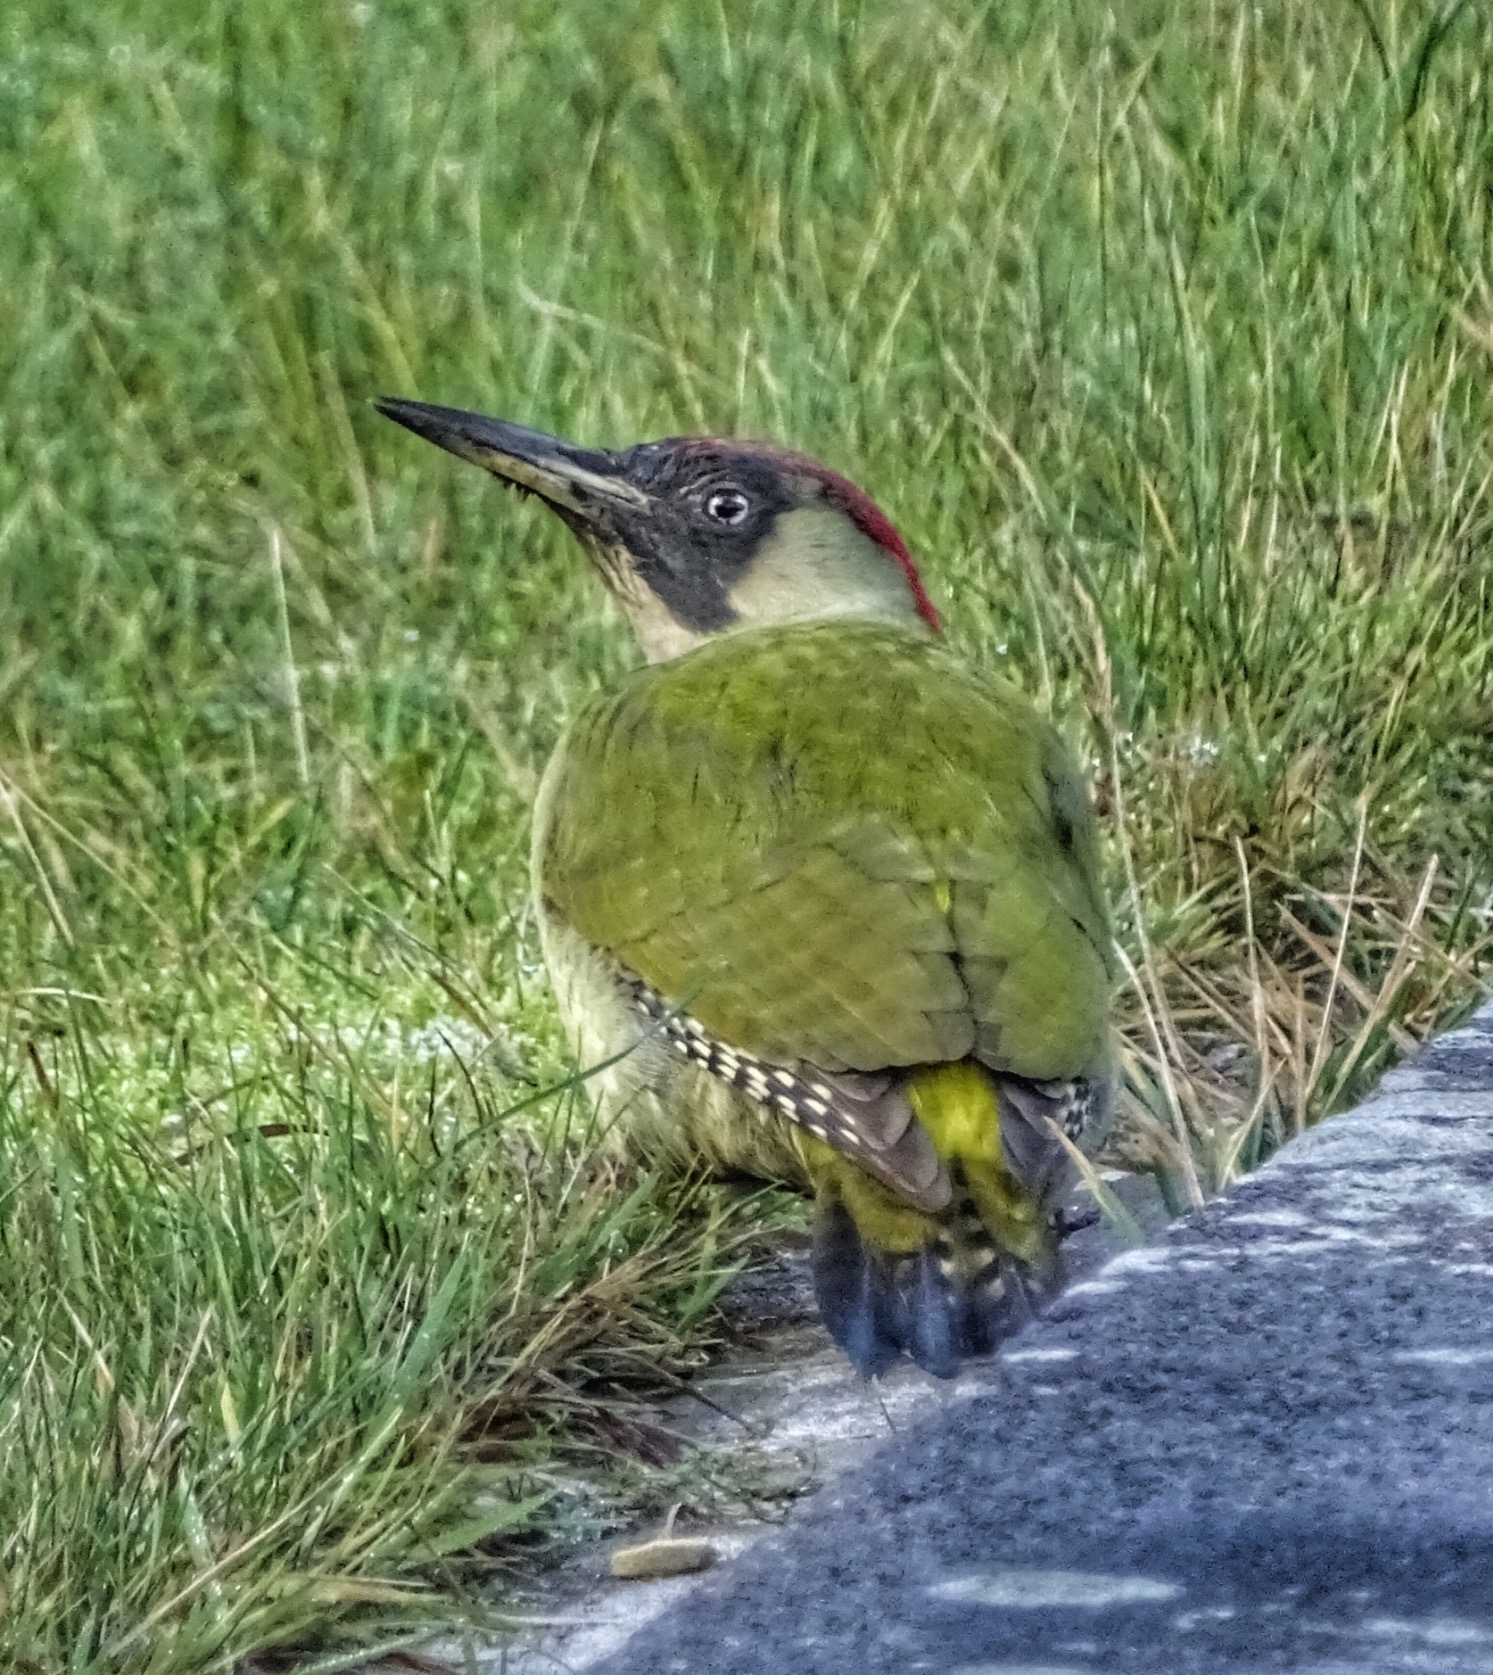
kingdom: Animalia
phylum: Chordata
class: Aves
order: Piciformes
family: Picidae
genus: Picus
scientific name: Picus viridis
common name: Grønspætte
